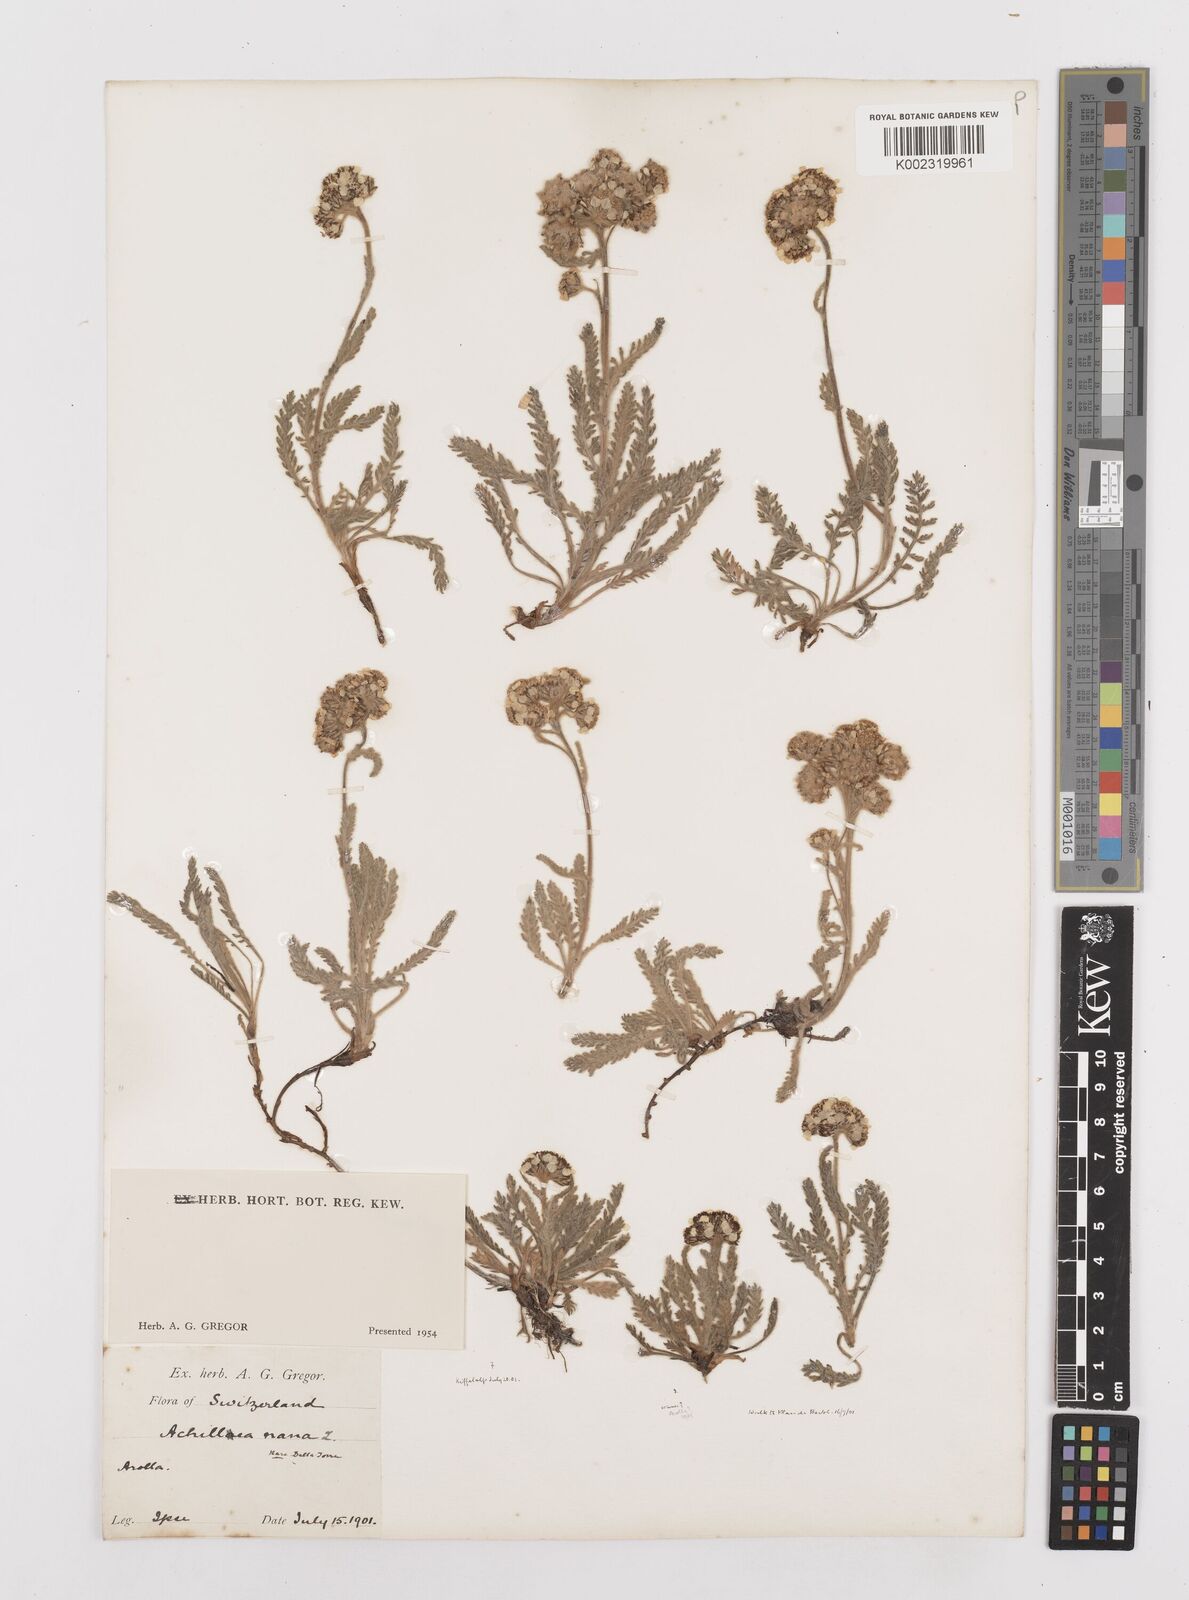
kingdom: Plantae
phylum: Tracheophyta
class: Magnoliopsida
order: Asterales
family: Asteraceae
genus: Achillea
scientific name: Achillea nana
